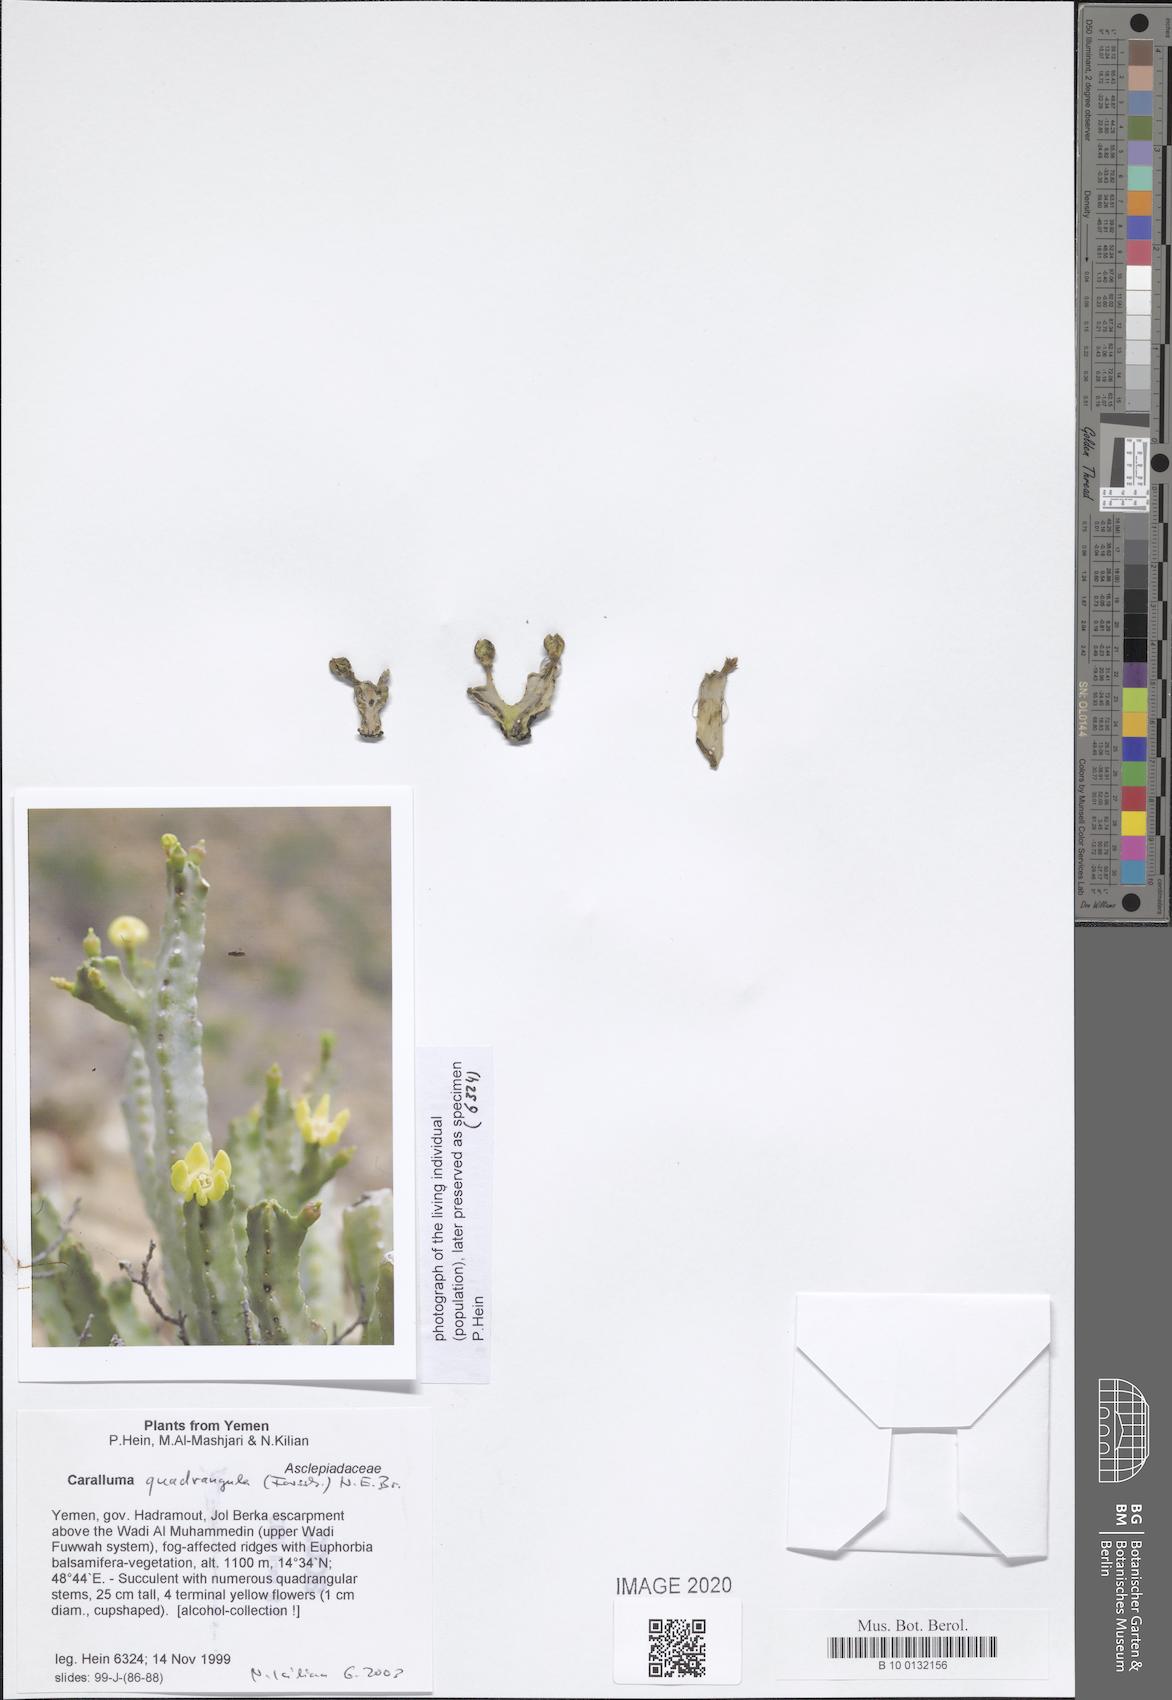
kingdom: Plantae
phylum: Tracheophyta
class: Magnoliopsida
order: Gentianales
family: Apocynaceae
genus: Ceropegia
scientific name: Ceropegia quadrangula
